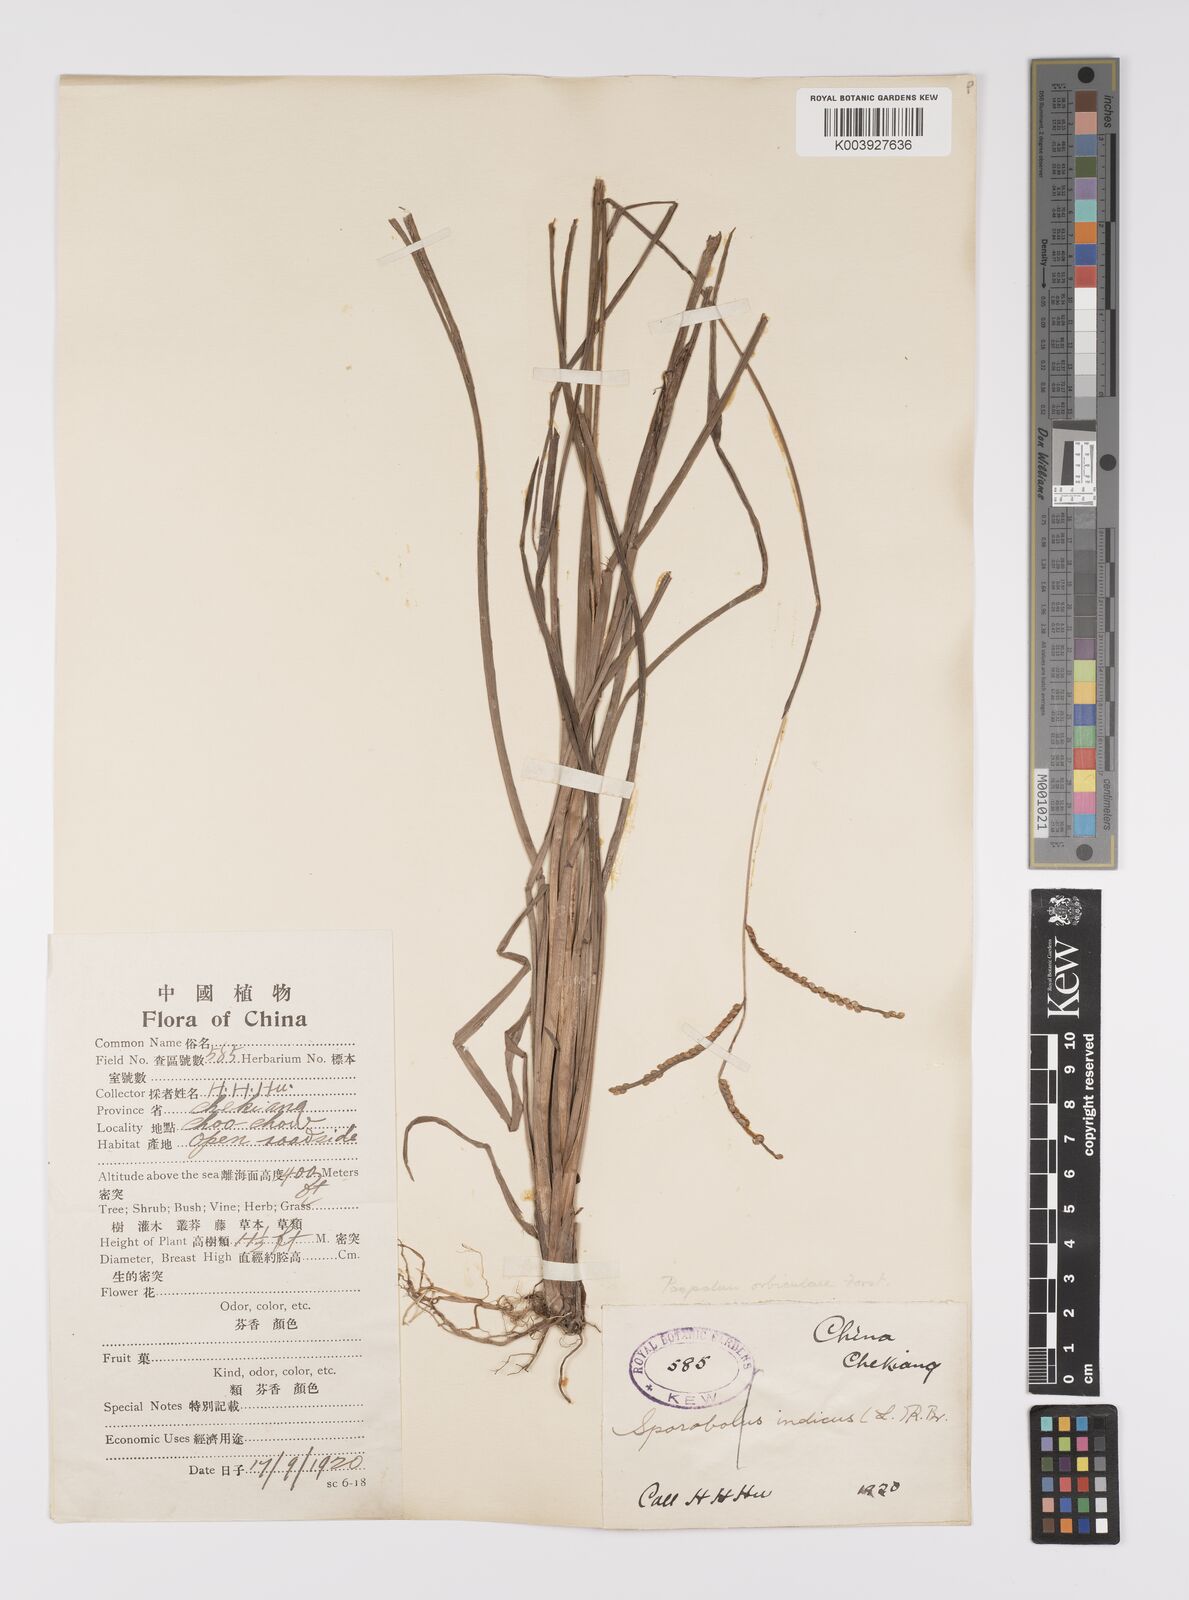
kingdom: Plantae
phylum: Tracheophyta
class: Liliopsida
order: Poales
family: Poaceae
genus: Paspalum
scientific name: Paspalum orbiculare
